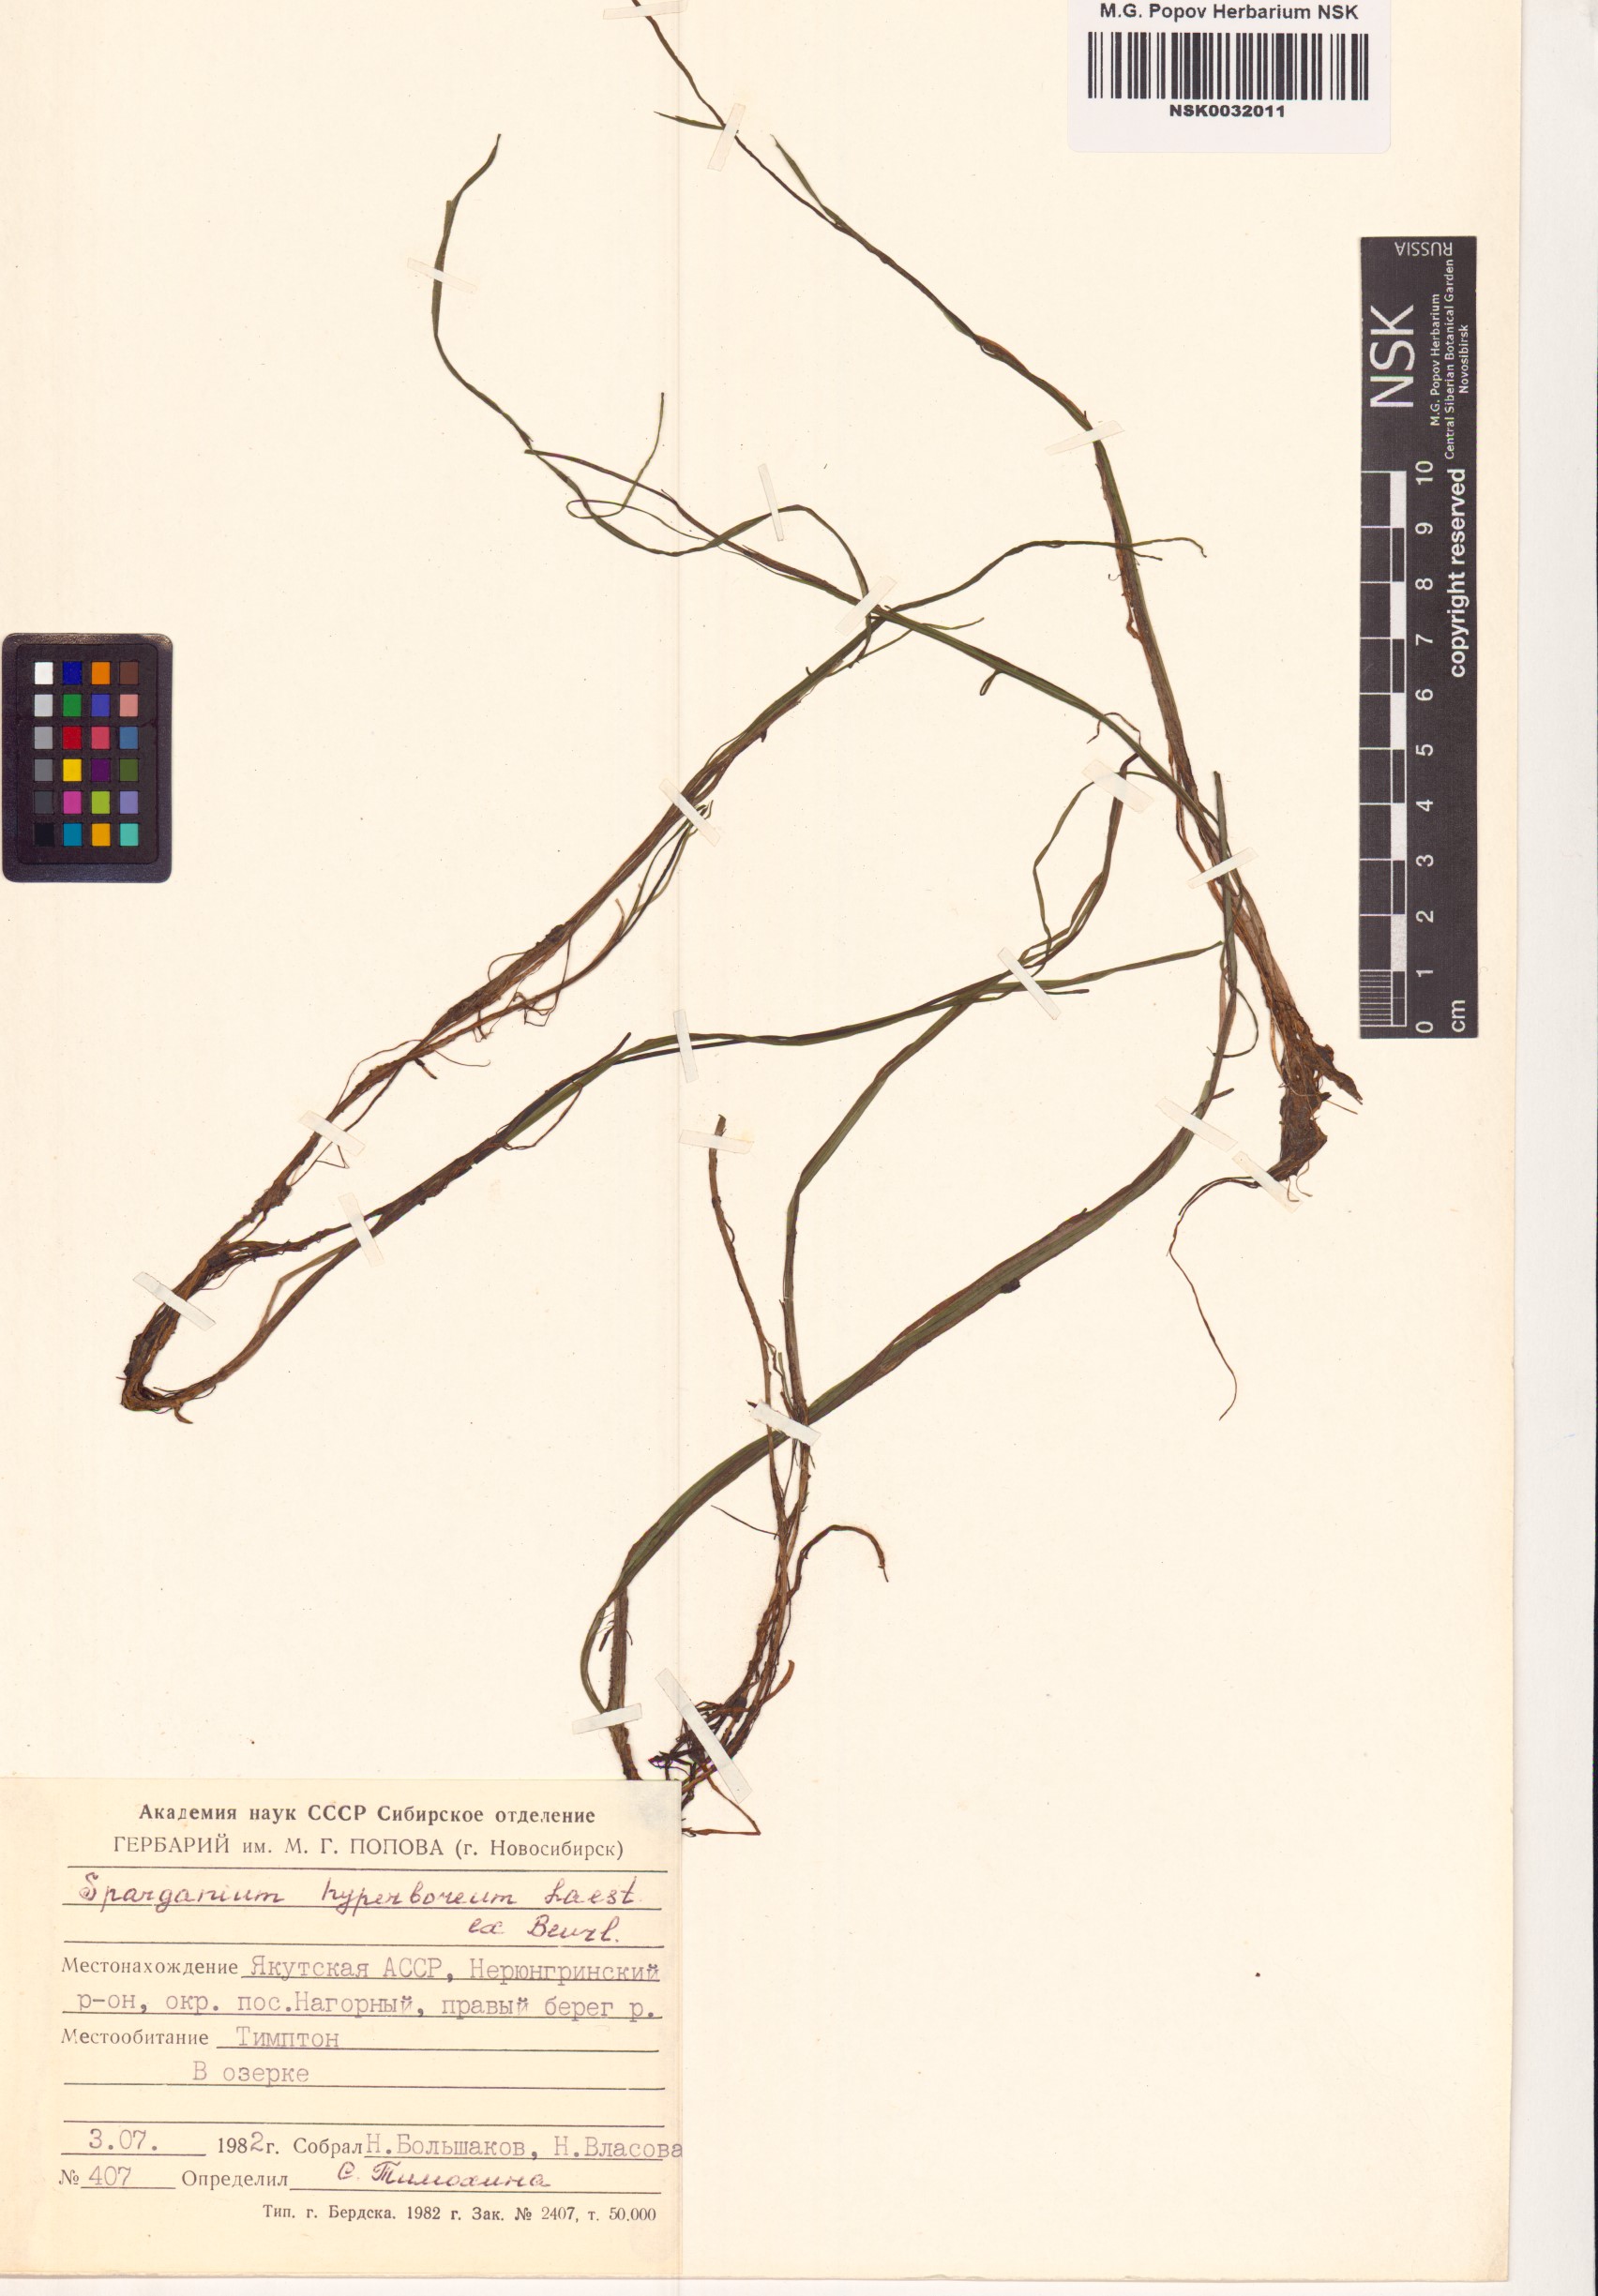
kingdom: Plantae
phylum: Tracheophyta
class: Liliopsida
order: Poales
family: Typhaceae
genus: Sparganium
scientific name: Sparganium hyperboreum
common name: Arctic burreed
